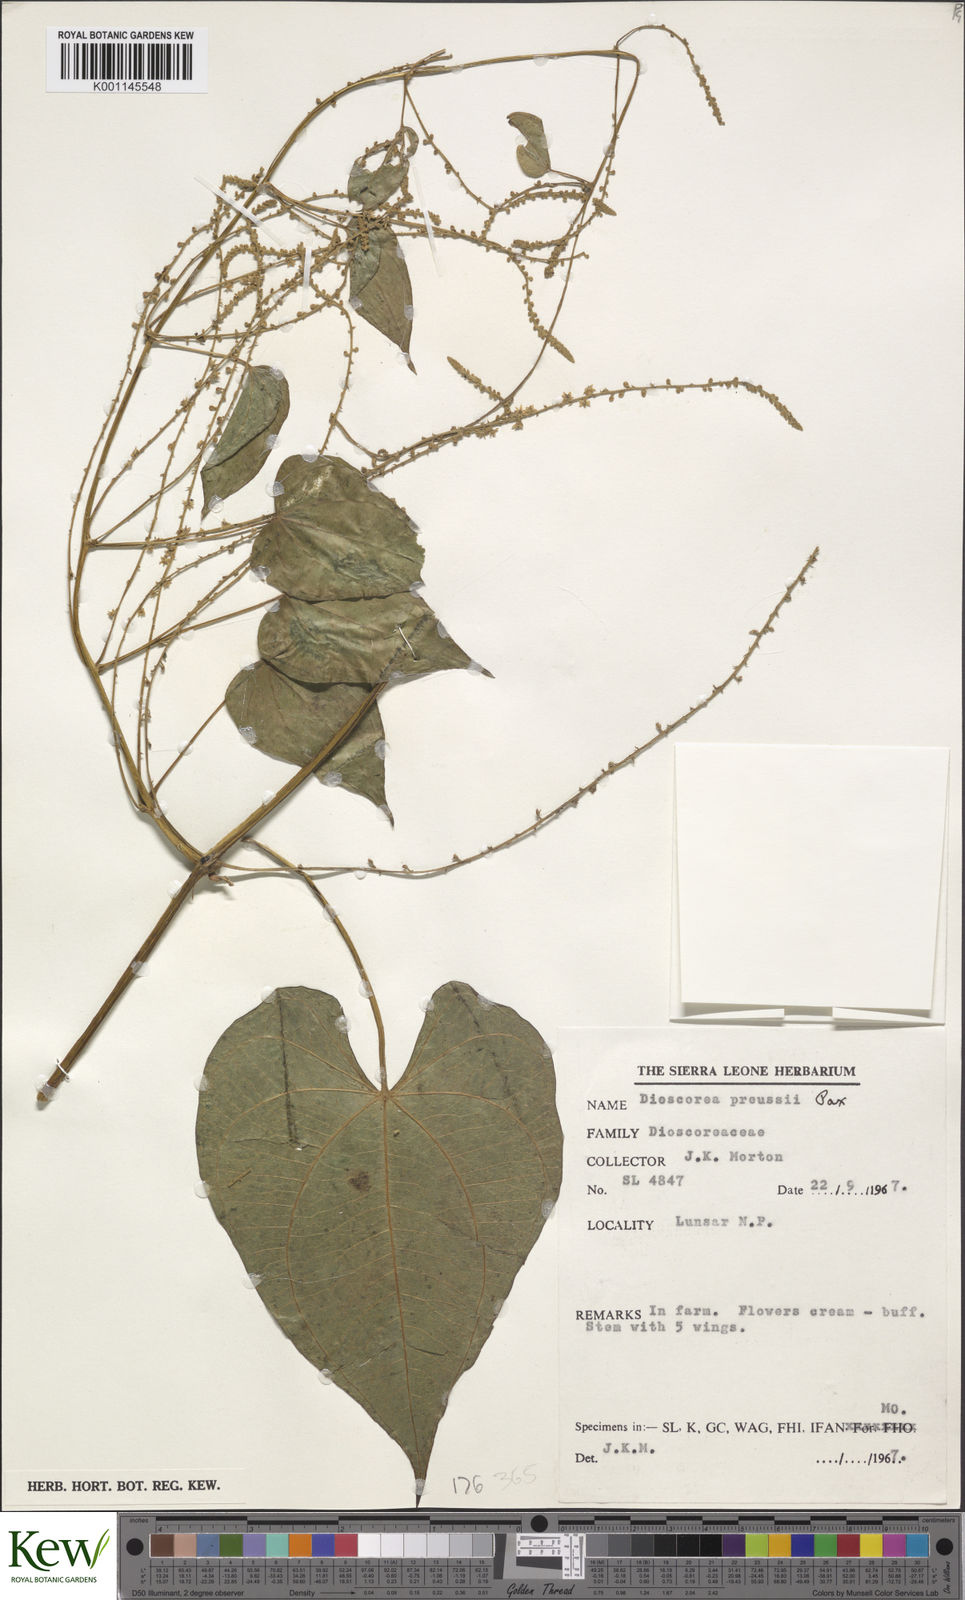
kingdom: Plantae
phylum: Tracheophyta
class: Liliopsida
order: Dioscoreales
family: Dioscoreaceae
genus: Dioscorea
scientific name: Dioscorea preussii
